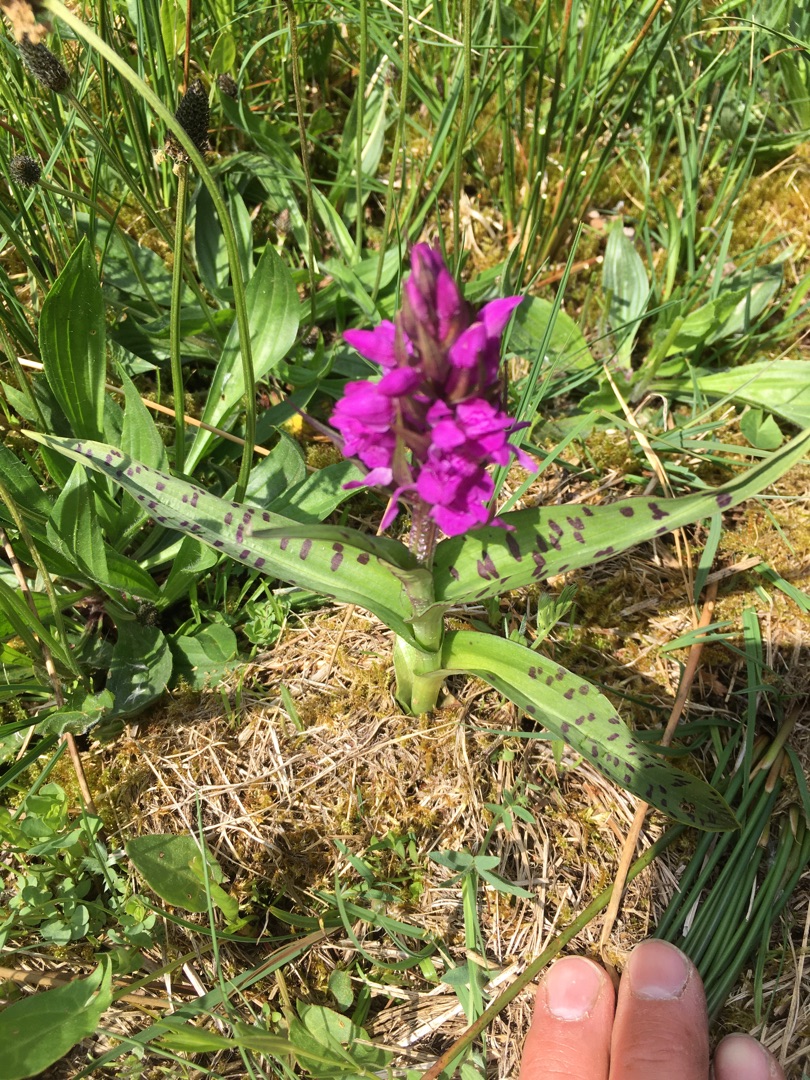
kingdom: Plantae
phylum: Tracheophyta
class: Liliopsida
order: Asparagales
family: Orchidaceae
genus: Dactylorhiza
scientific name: Dactylorhiza majalis
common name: Maj-gøgeurt
